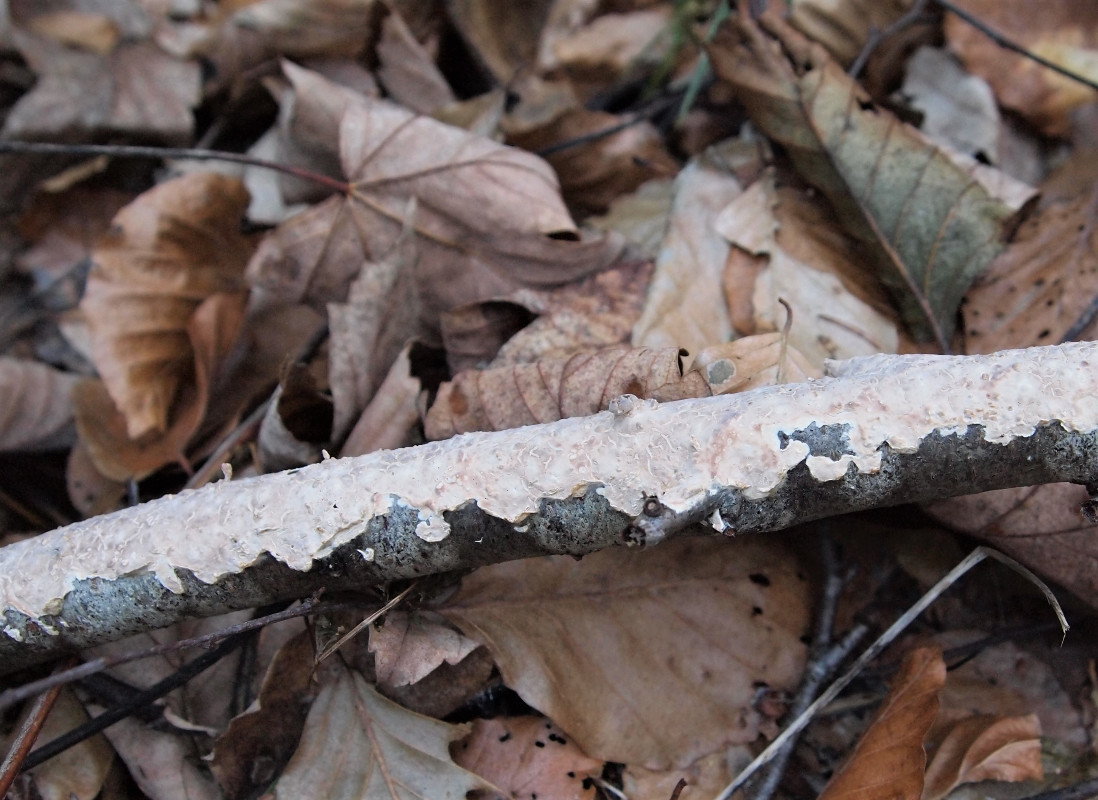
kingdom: Fungi
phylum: Basidiomycota
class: Agaricomycetes
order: Agaricales
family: Physalacriaceae
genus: Cylindrobasidium
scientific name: Cylindrobasidium evolvens
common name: sprækkehinde
